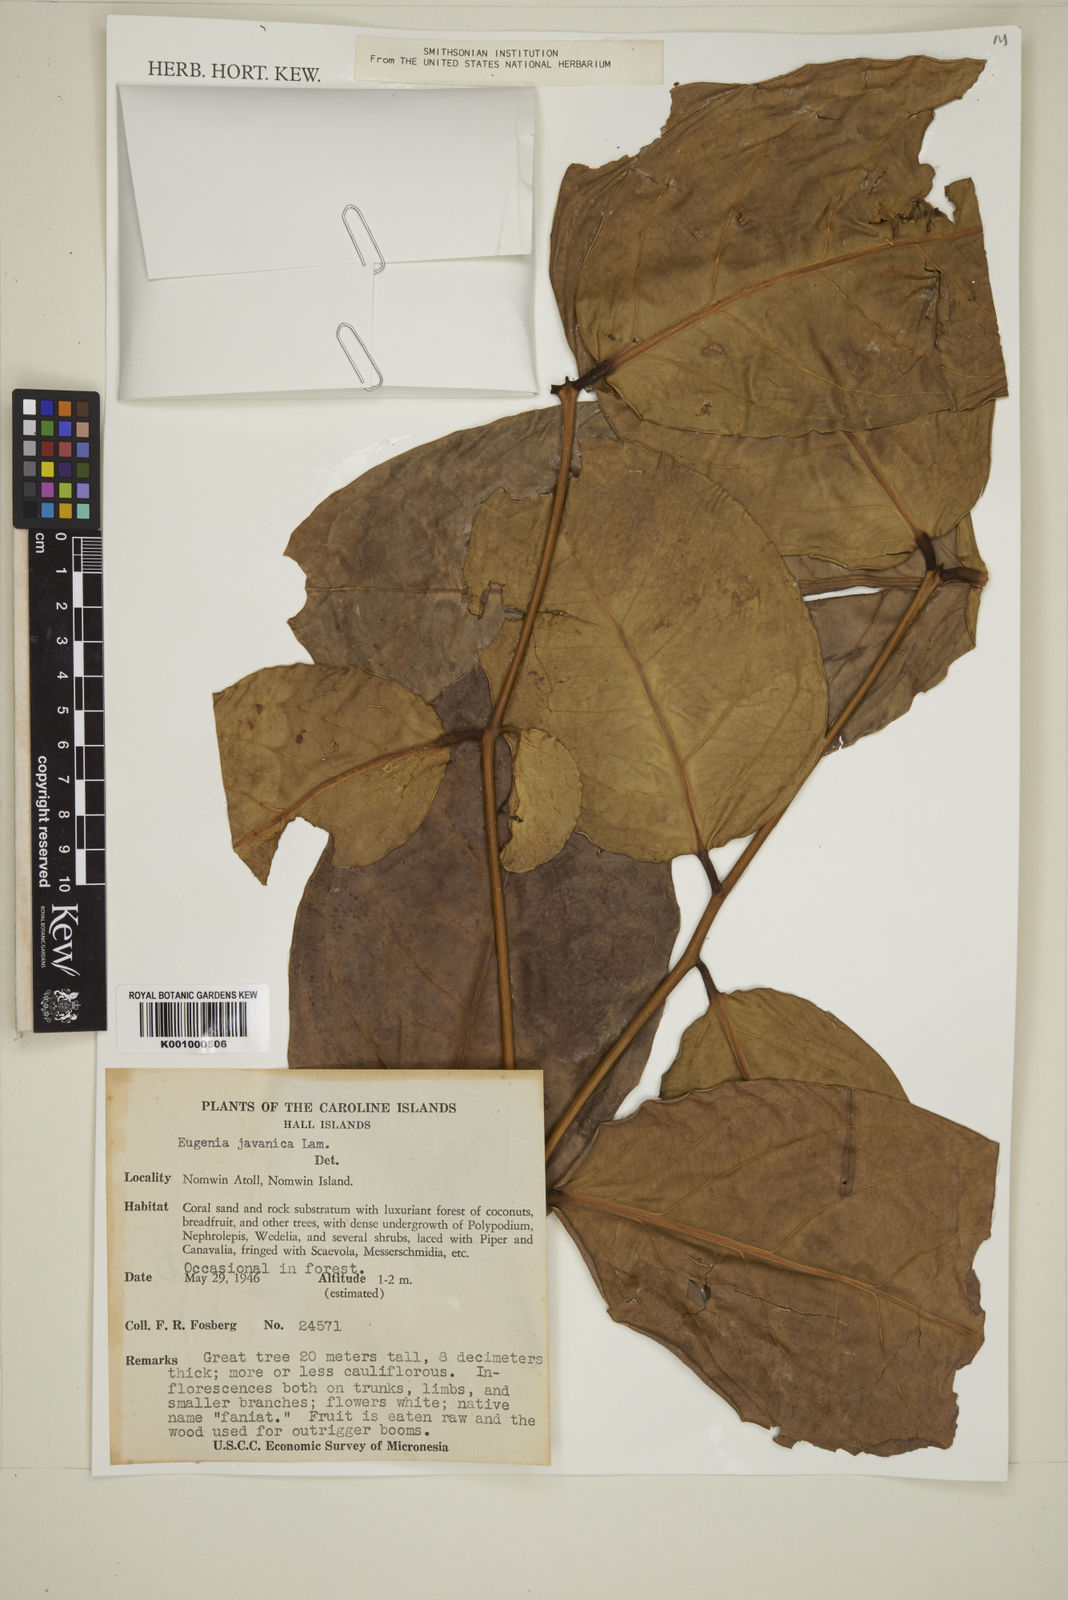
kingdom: Plantae
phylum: Tracheophyta
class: Magnoliopsida
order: Myrtales
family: Myrtaceae
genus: Syzygium
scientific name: Syzygium samarangense
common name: Semarang rose-apple
